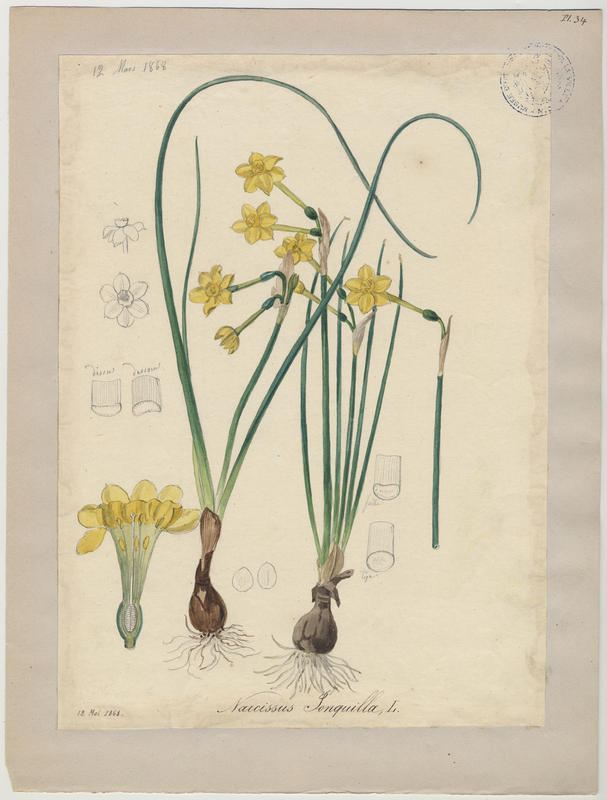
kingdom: Plantae
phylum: Tracheophyta
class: Liliopsida
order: Asparagales
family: Amaryllidaceae
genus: Narcissus
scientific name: Narcissus jonquilla
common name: Jonquil
